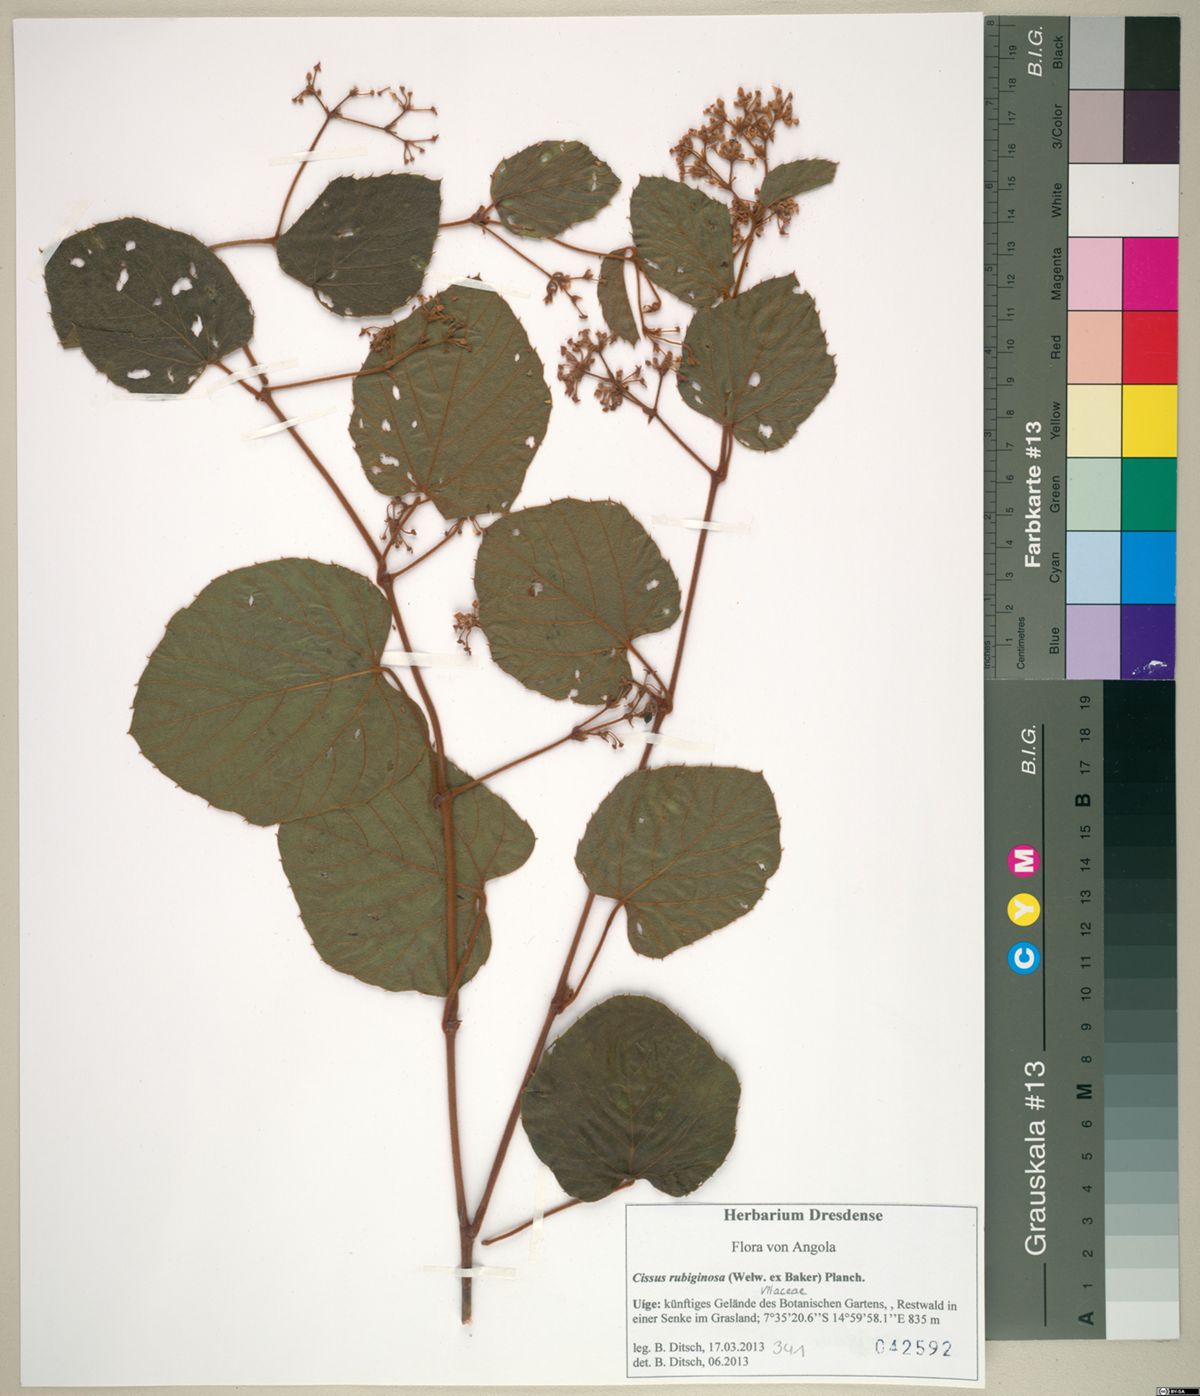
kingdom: Plantae
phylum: Tracheophyta
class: Magnoliopsida
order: Vitales
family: Vitaceae
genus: Cissus
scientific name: Cissus rubiginosa
